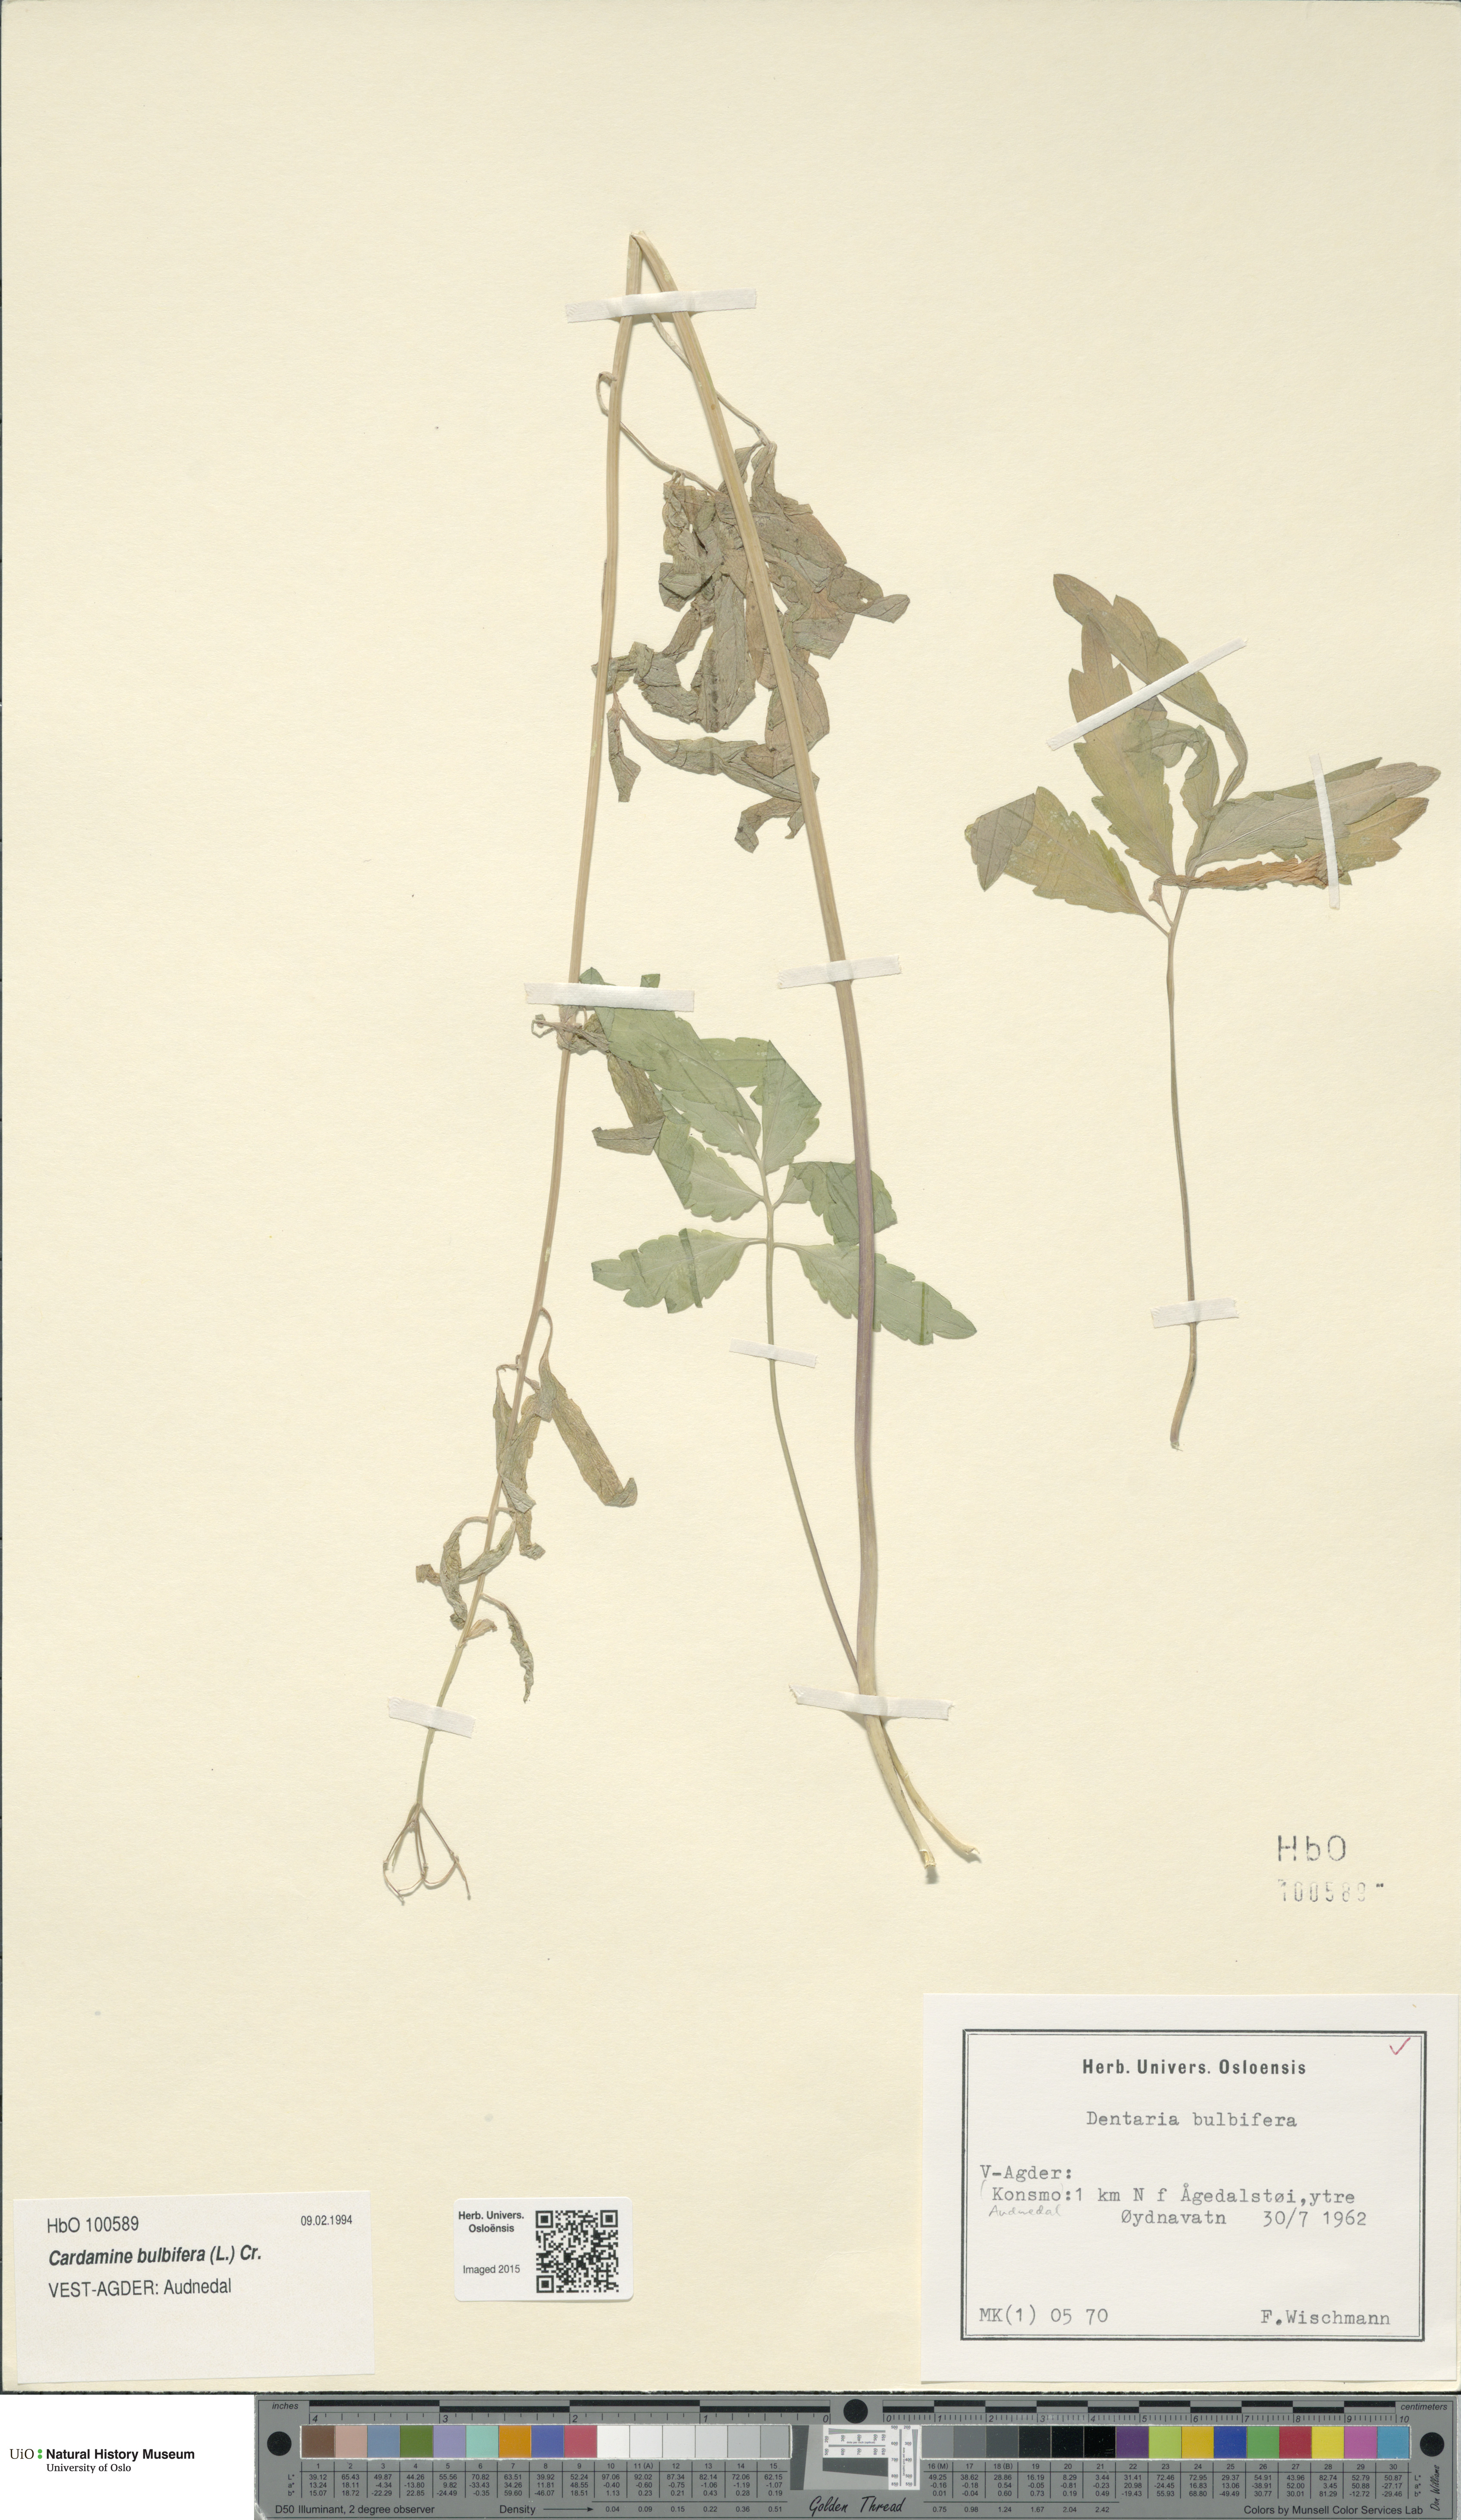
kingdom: Plantae
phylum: Tracheophyta
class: Magnoliopsida
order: Brassicales
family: Brassicaceae
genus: Cardamine
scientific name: Cardamine bulbifera
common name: Coralroot bittercress
